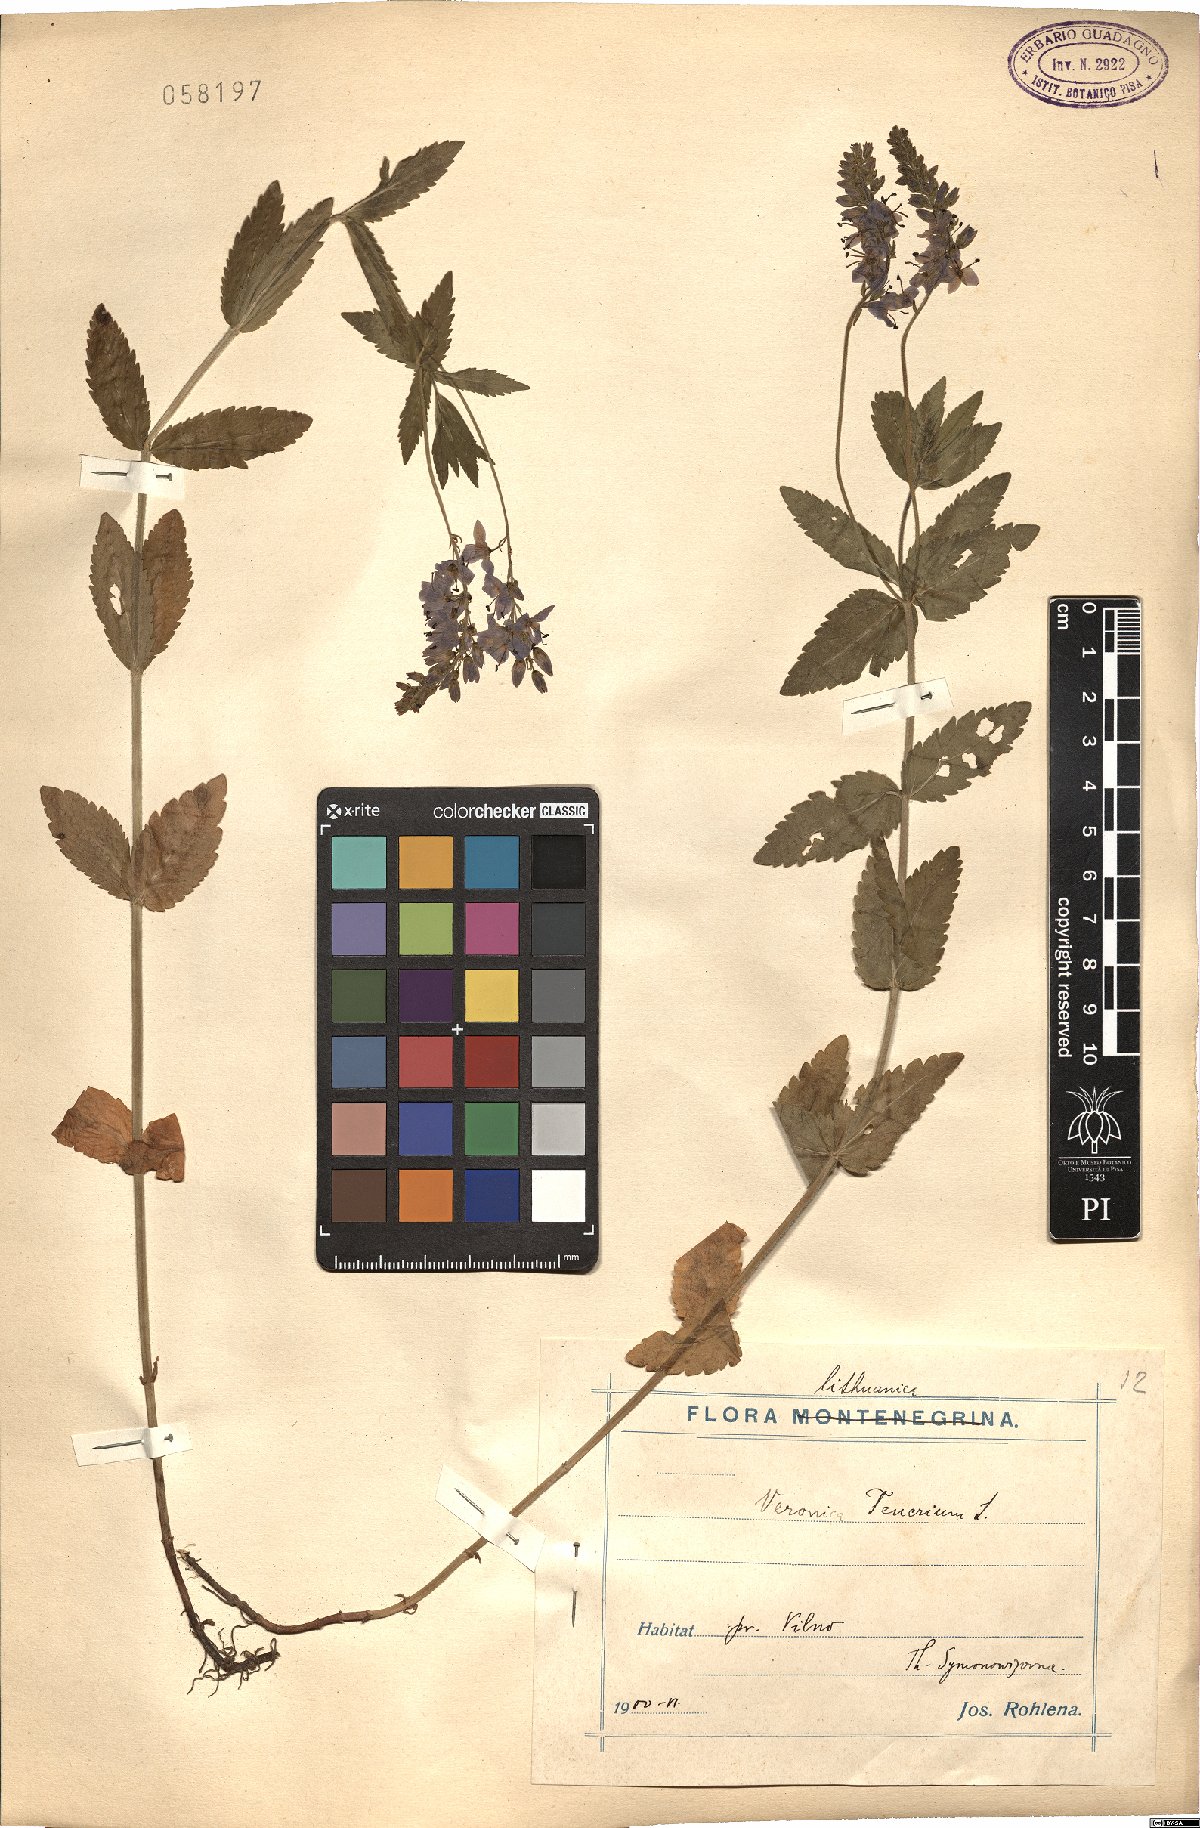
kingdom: Plantae
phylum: Tracheophyta
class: Magnoliopsida
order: Lamiales
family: Plantaginaceae
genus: Veronica
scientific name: Veronica teucrium
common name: Large speedwell
